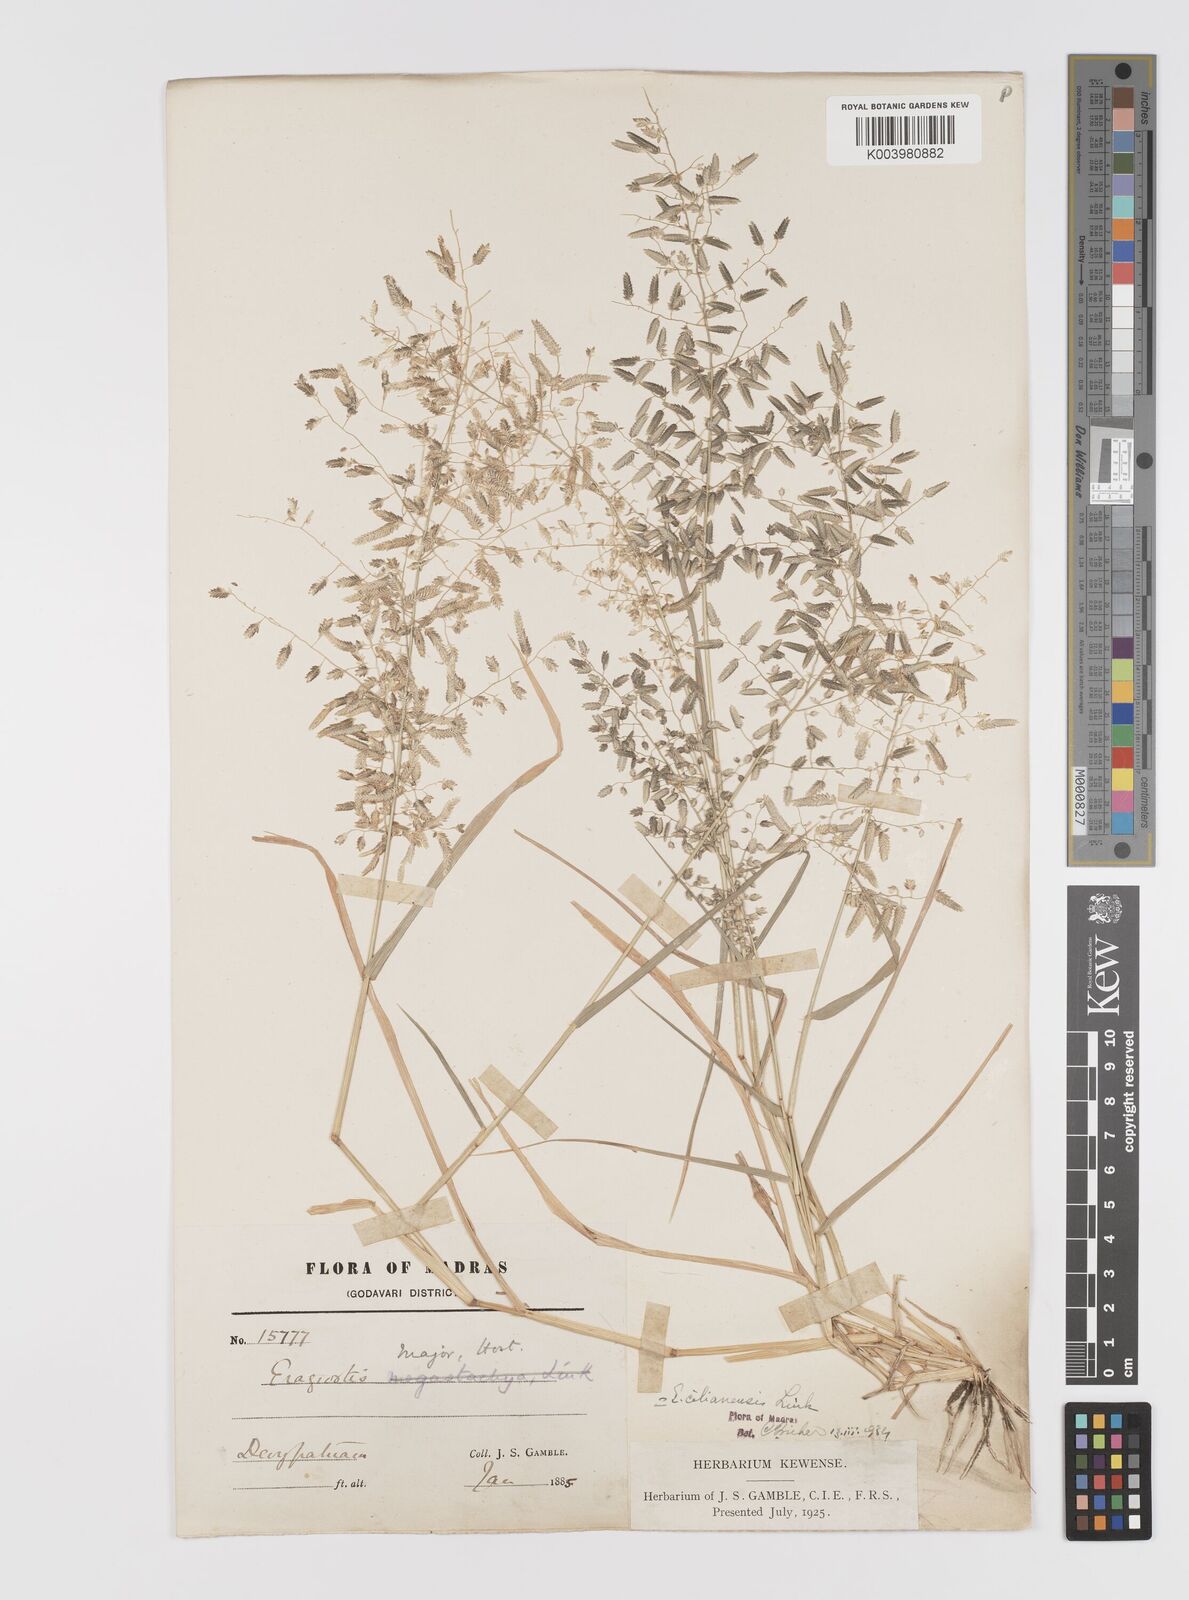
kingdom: Plantae
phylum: Tracheophyta
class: Liliopsida
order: Poales
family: Poaceae
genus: Eragrostis
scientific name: Eragrostis cilianensis
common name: Stinkgrass
